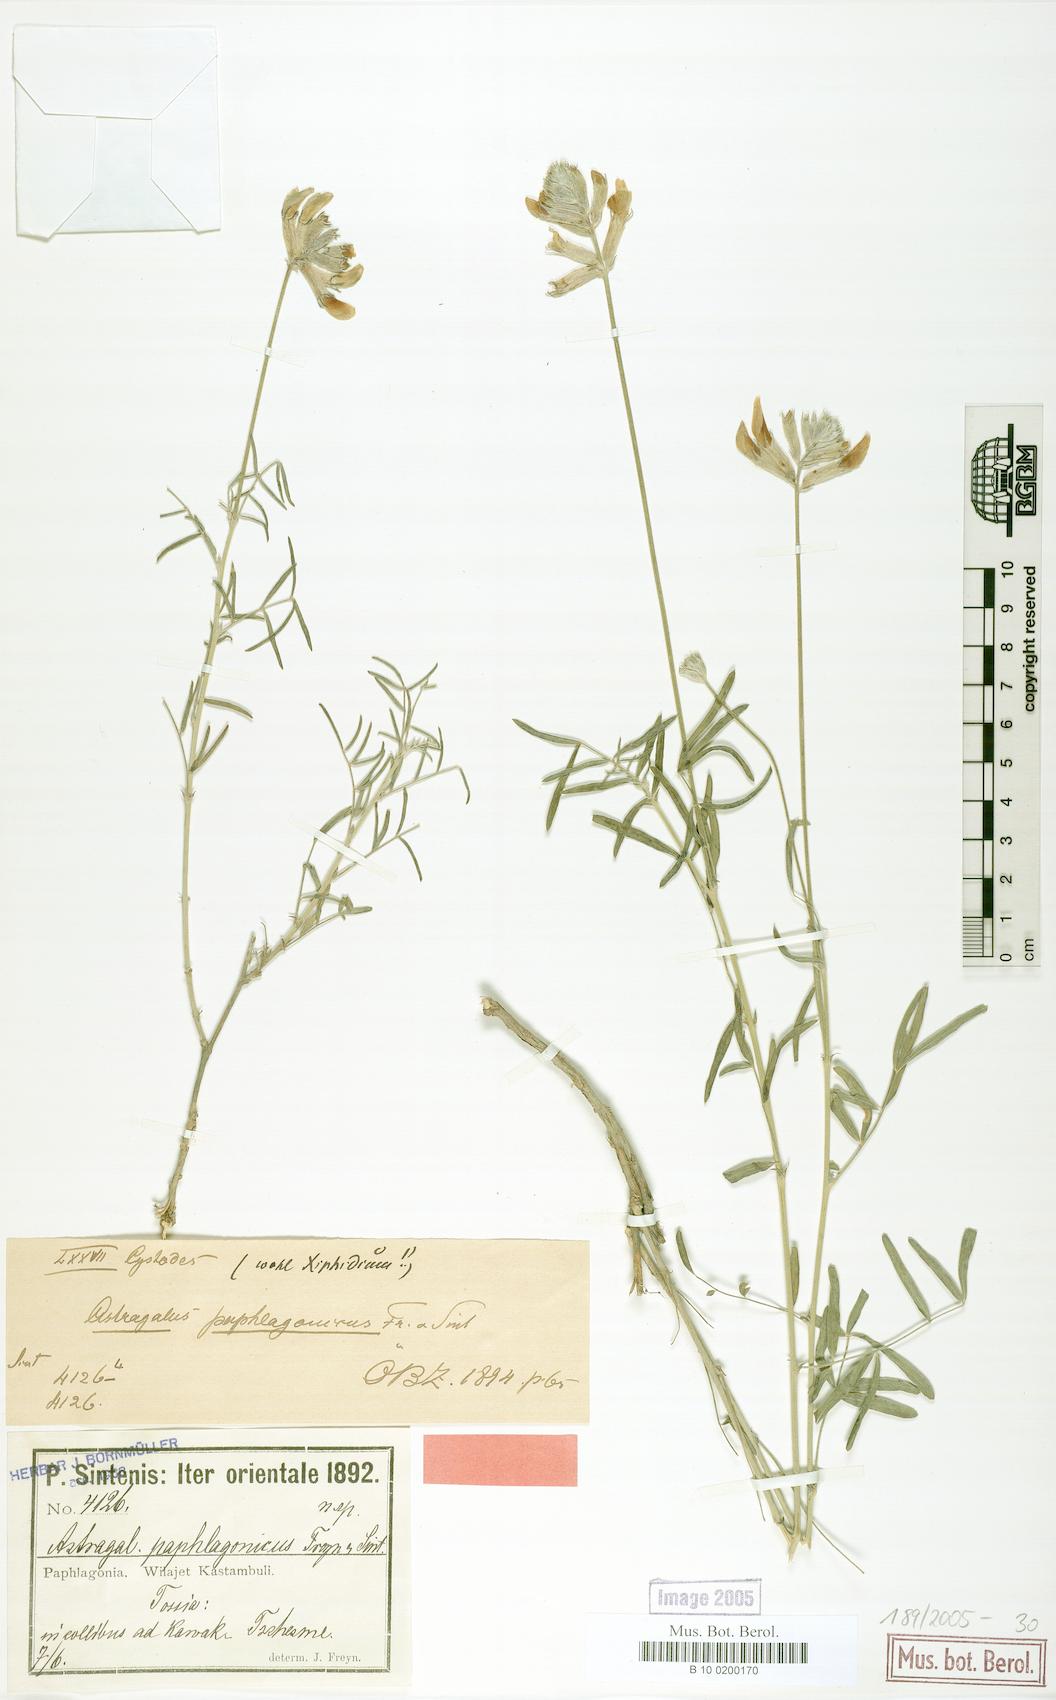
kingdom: Plantae
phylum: Tracheophyta
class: Magnoliopsida
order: Fabales
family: Fabaceae
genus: Astragalus
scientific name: Astragalus kastamonuensis
